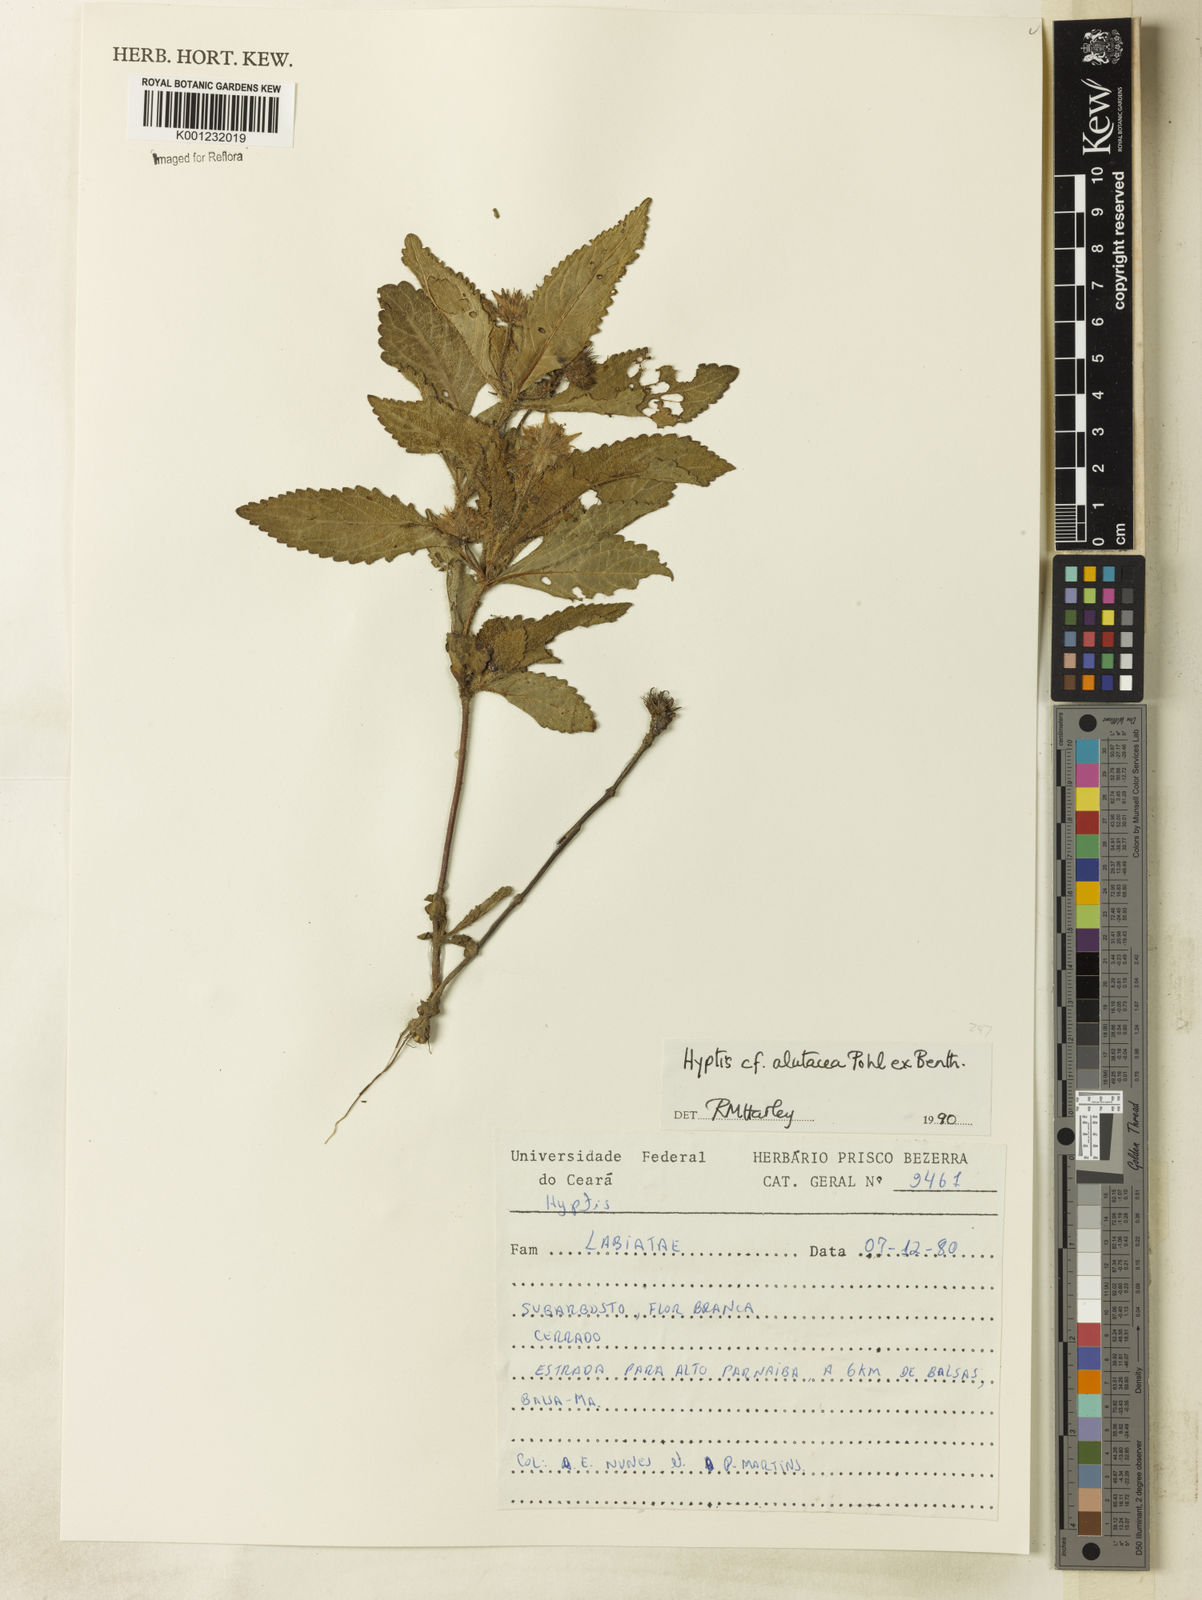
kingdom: Plantae
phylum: Tracheophyta
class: Magnoliopsida
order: Lamiales
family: Lamiaceae
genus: Hyptis
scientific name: Hyptis alutacea
